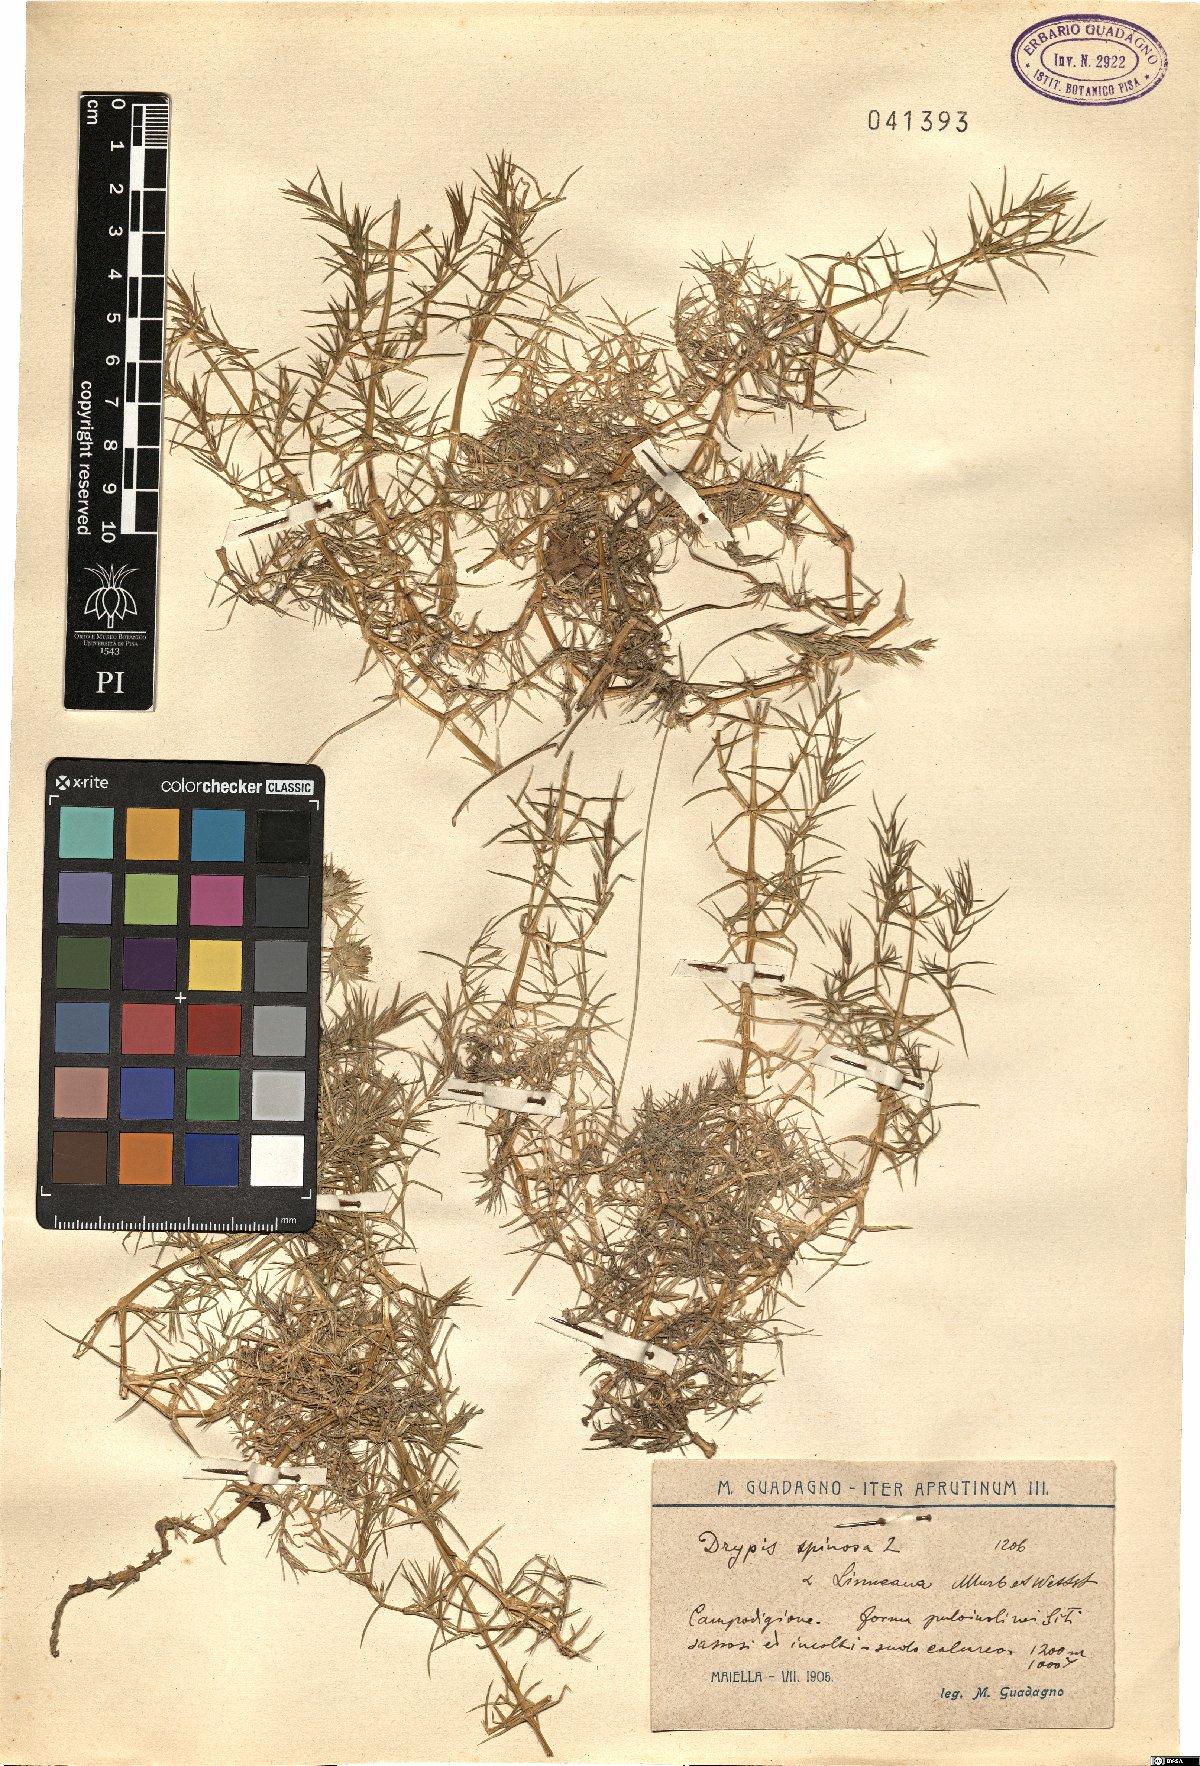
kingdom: Plantae
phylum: Tracheophyta
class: Magnoliopsida
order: Caryophyllales
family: Caryophyllaceae
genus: Drypis
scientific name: Drypis spinosa
